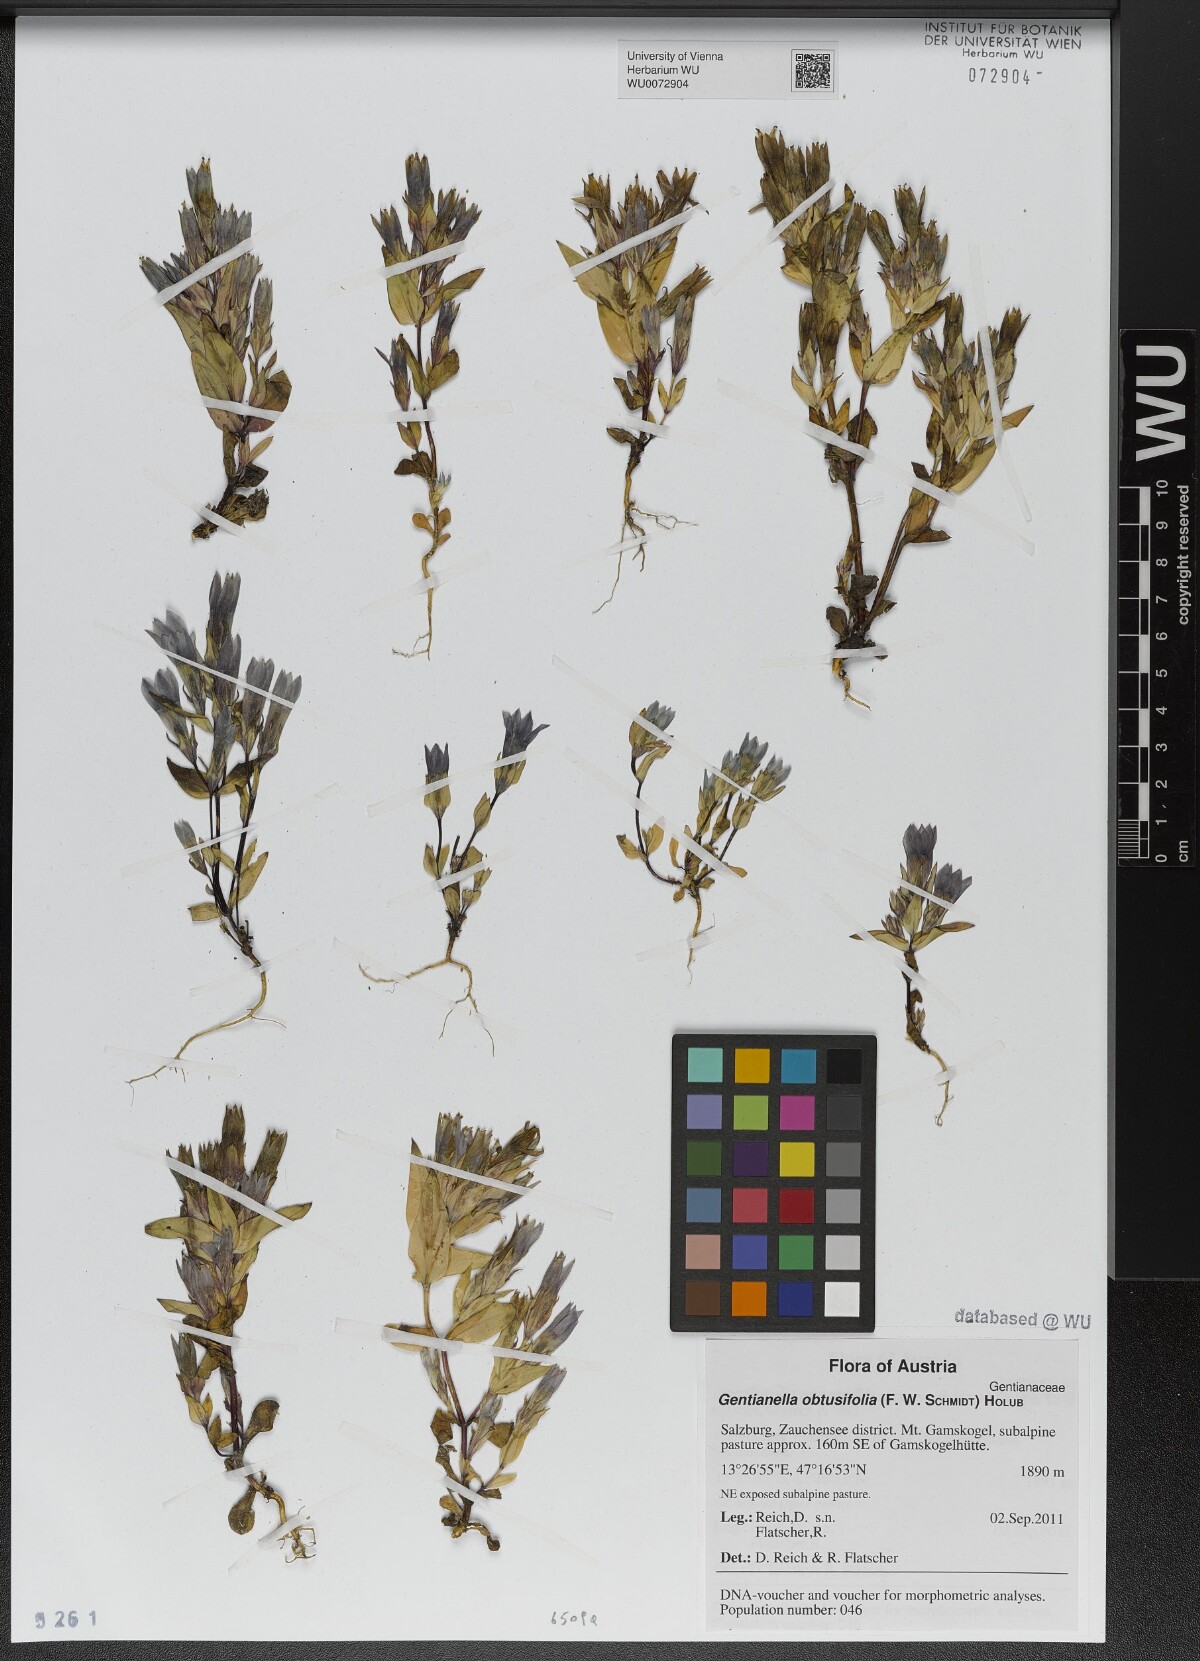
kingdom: Plantae
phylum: Tracheophyta
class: Magnoliopsida
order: Gentianales
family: Gentianaceae
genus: Gentianella
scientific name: Gentianella obtusifolia
